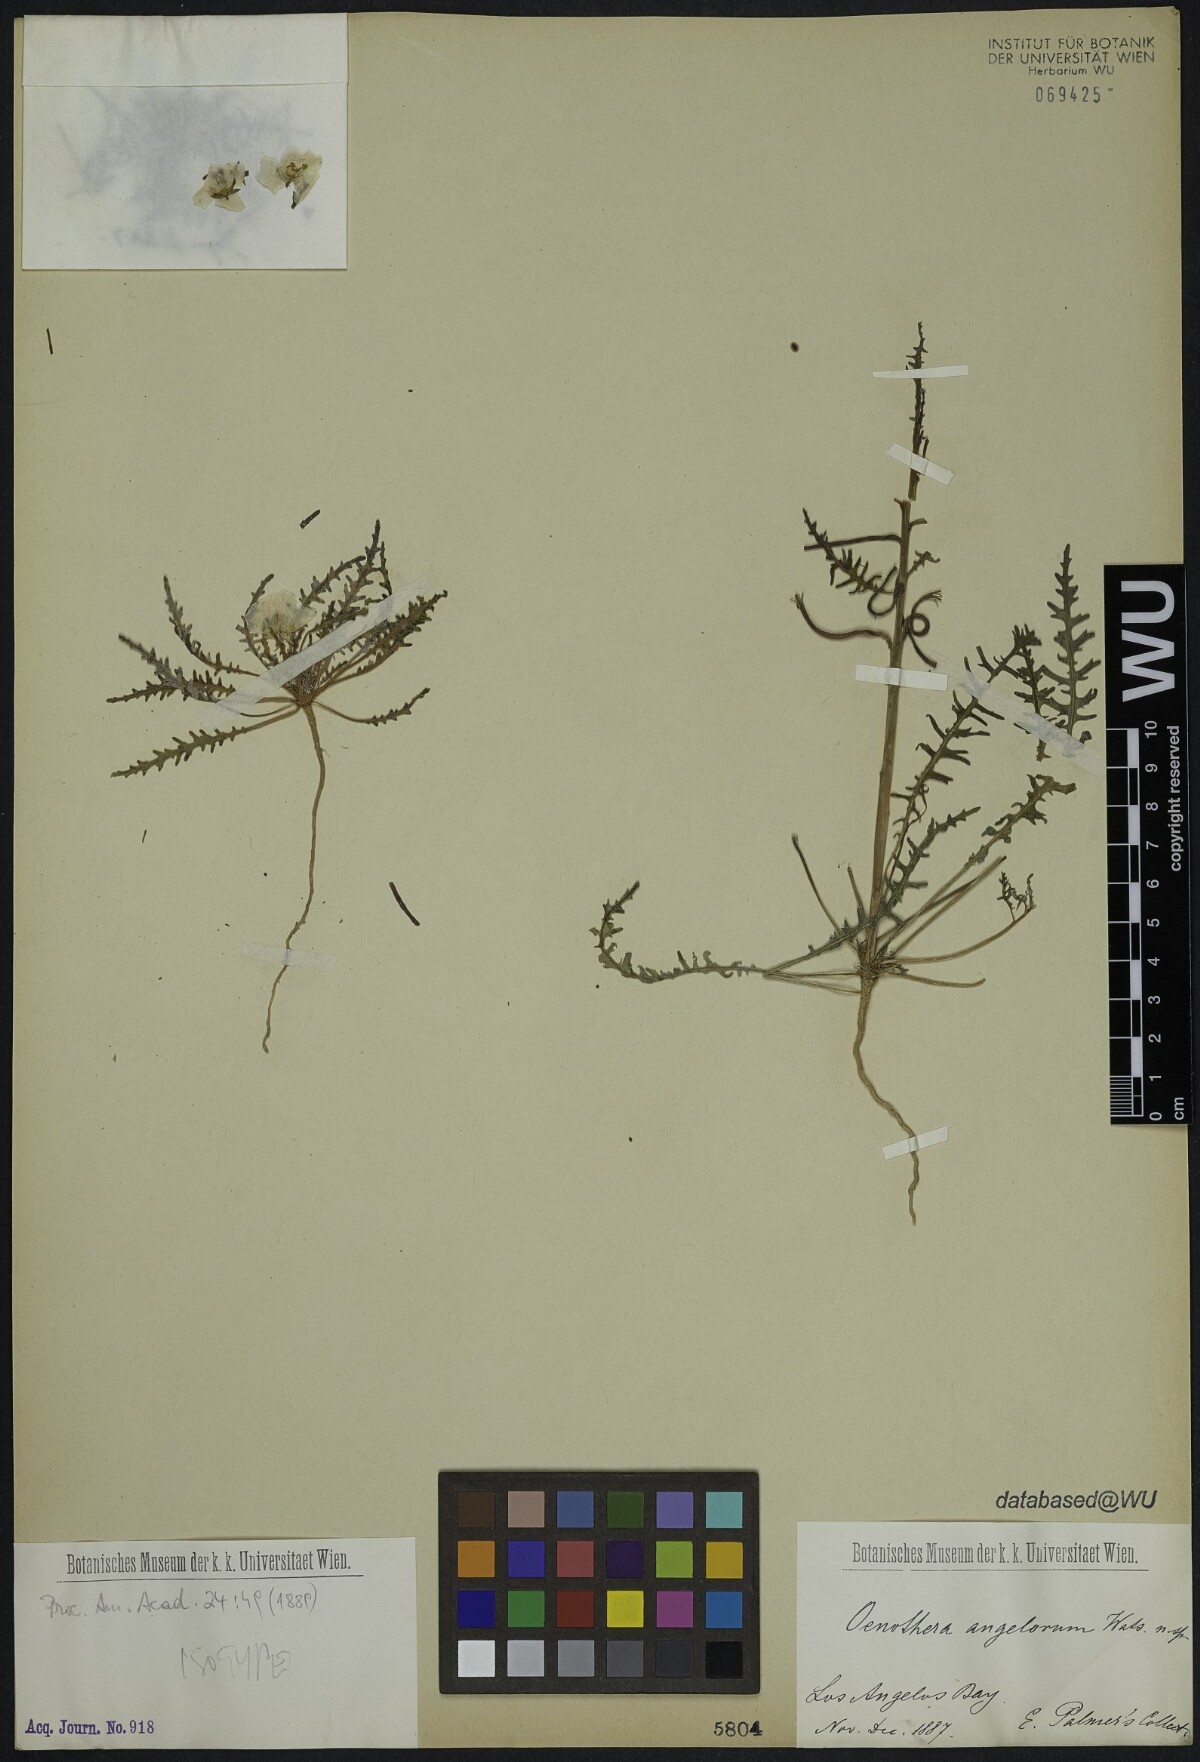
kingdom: Plantae
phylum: Tracheophyta
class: Magnoliopsida
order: Myrtales
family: Onagraceae
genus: Eulobus
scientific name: Eulobus angelorum
